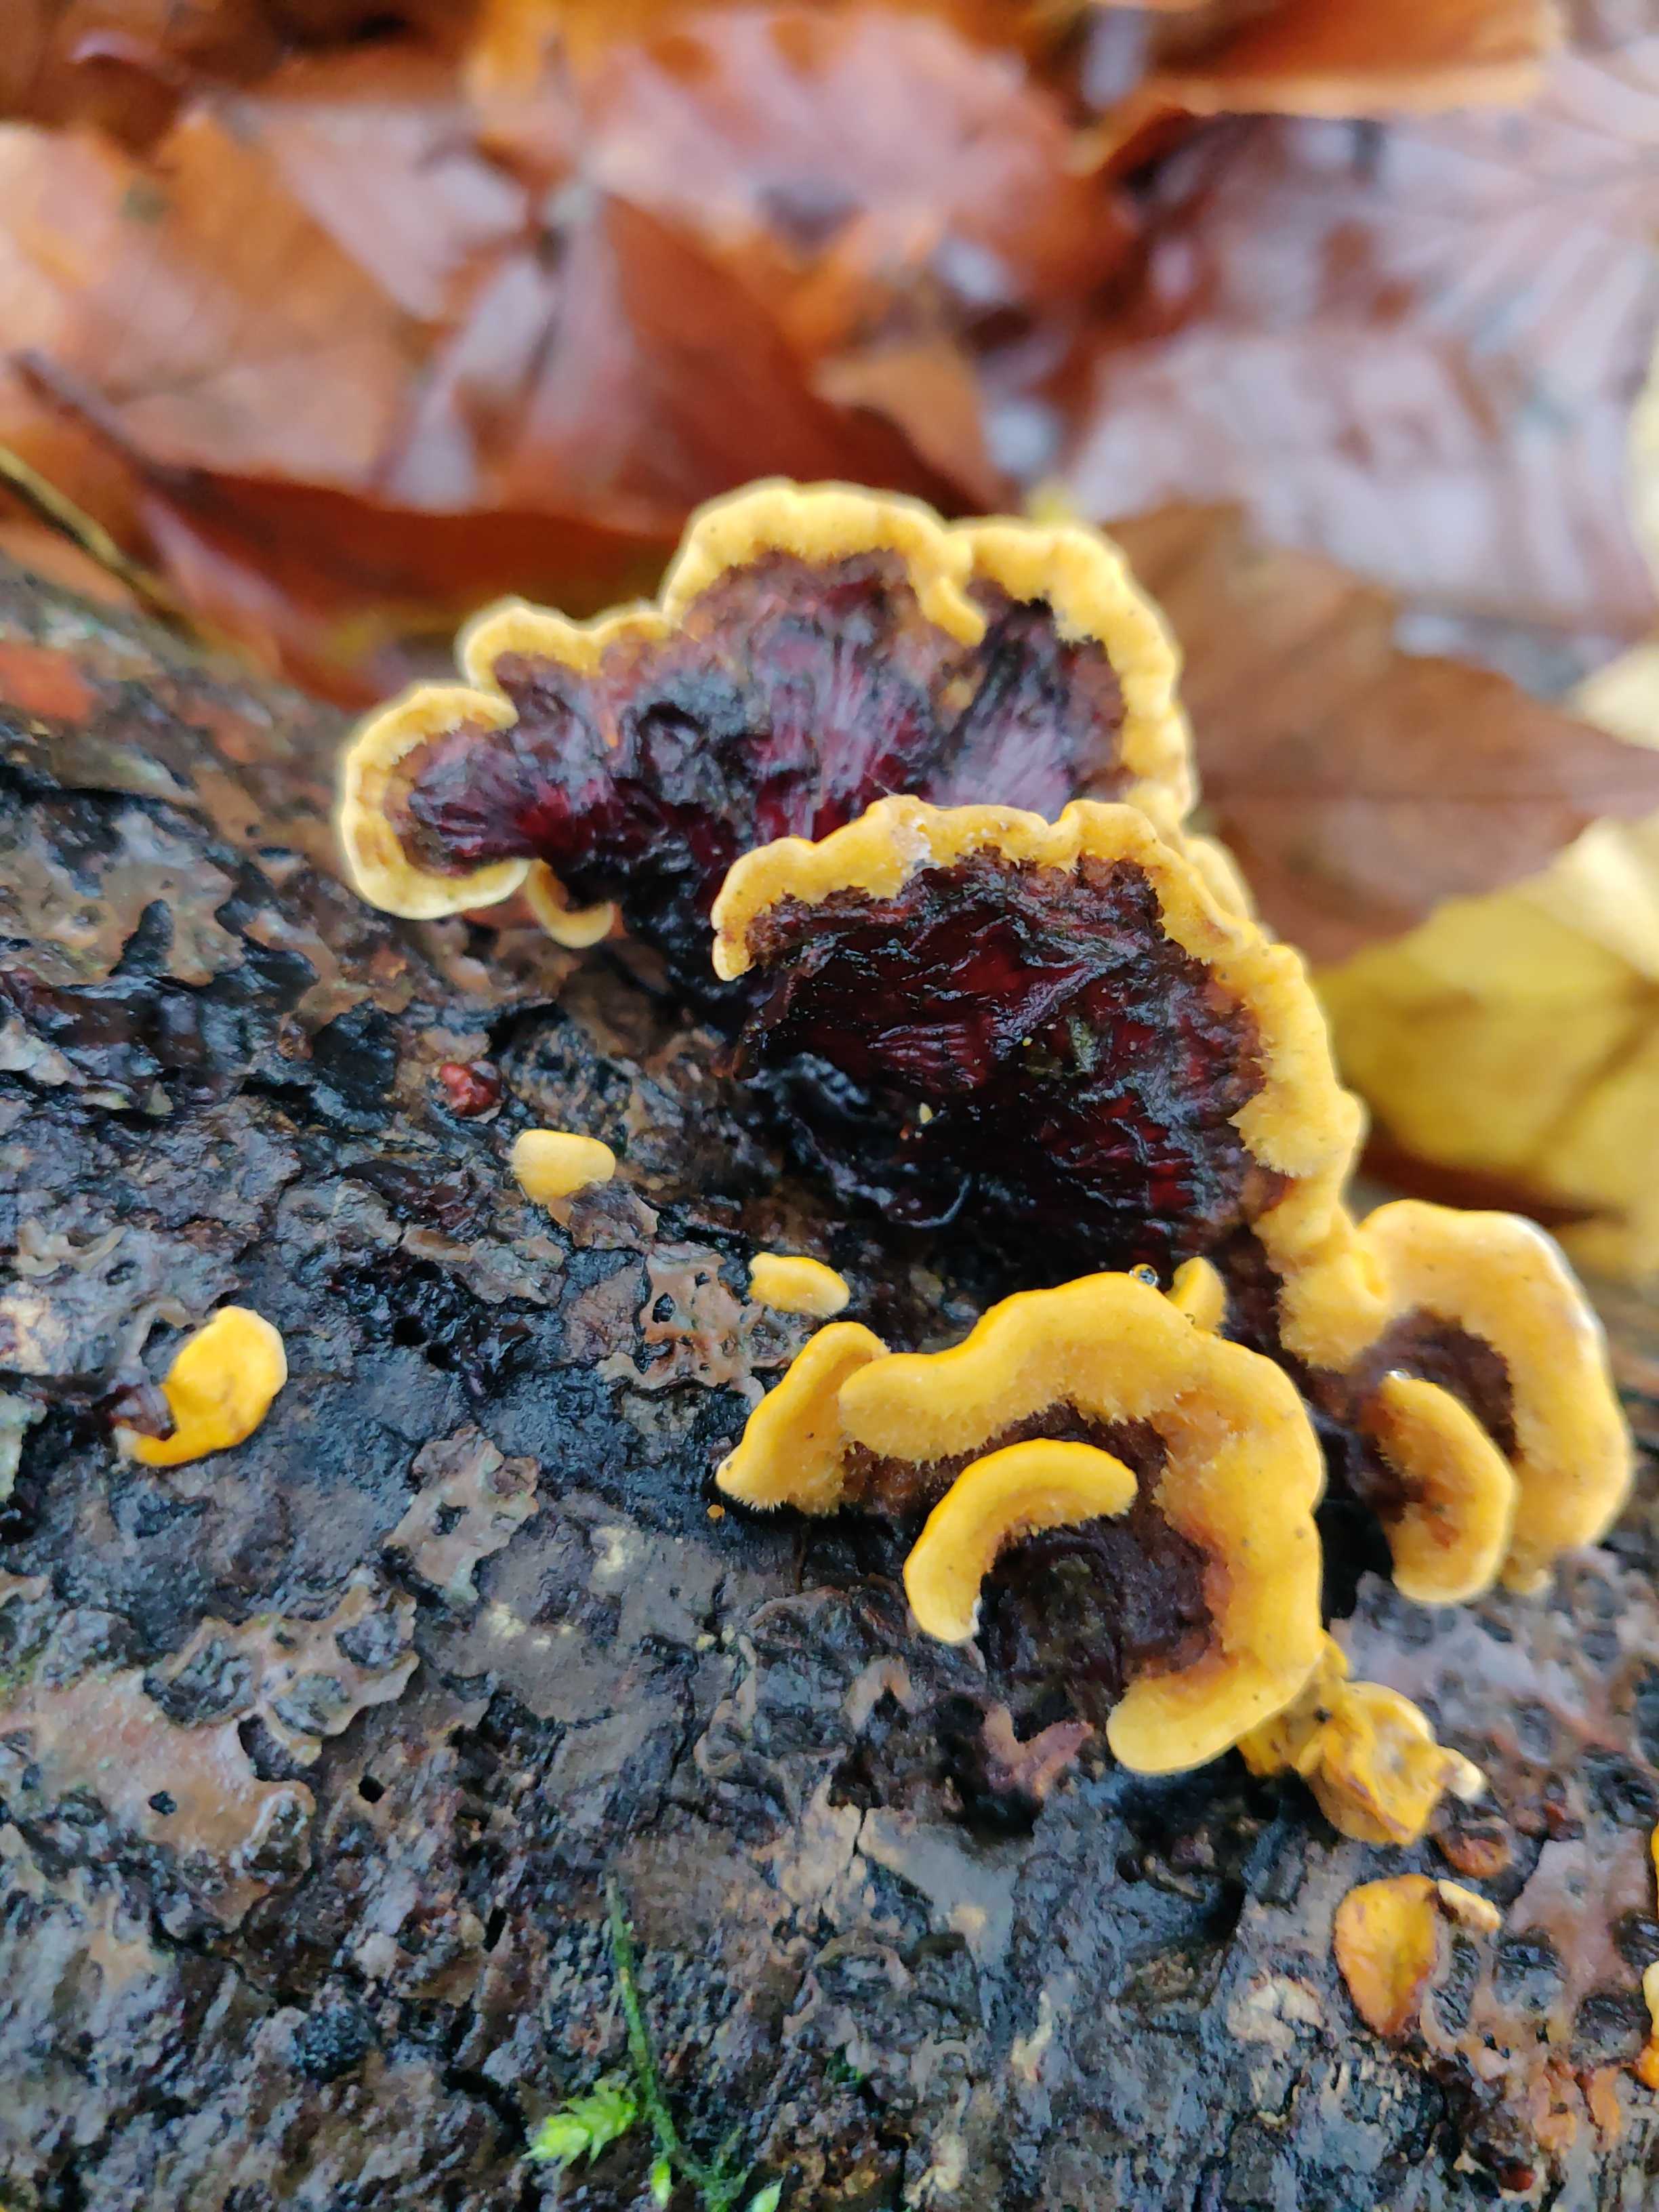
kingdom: Fungi
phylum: Basidiomycota
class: Agaricomycetes
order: Russulales
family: Stereaceae
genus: Stereum
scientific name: Stereum hirsutum
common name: håret lædersvamp
